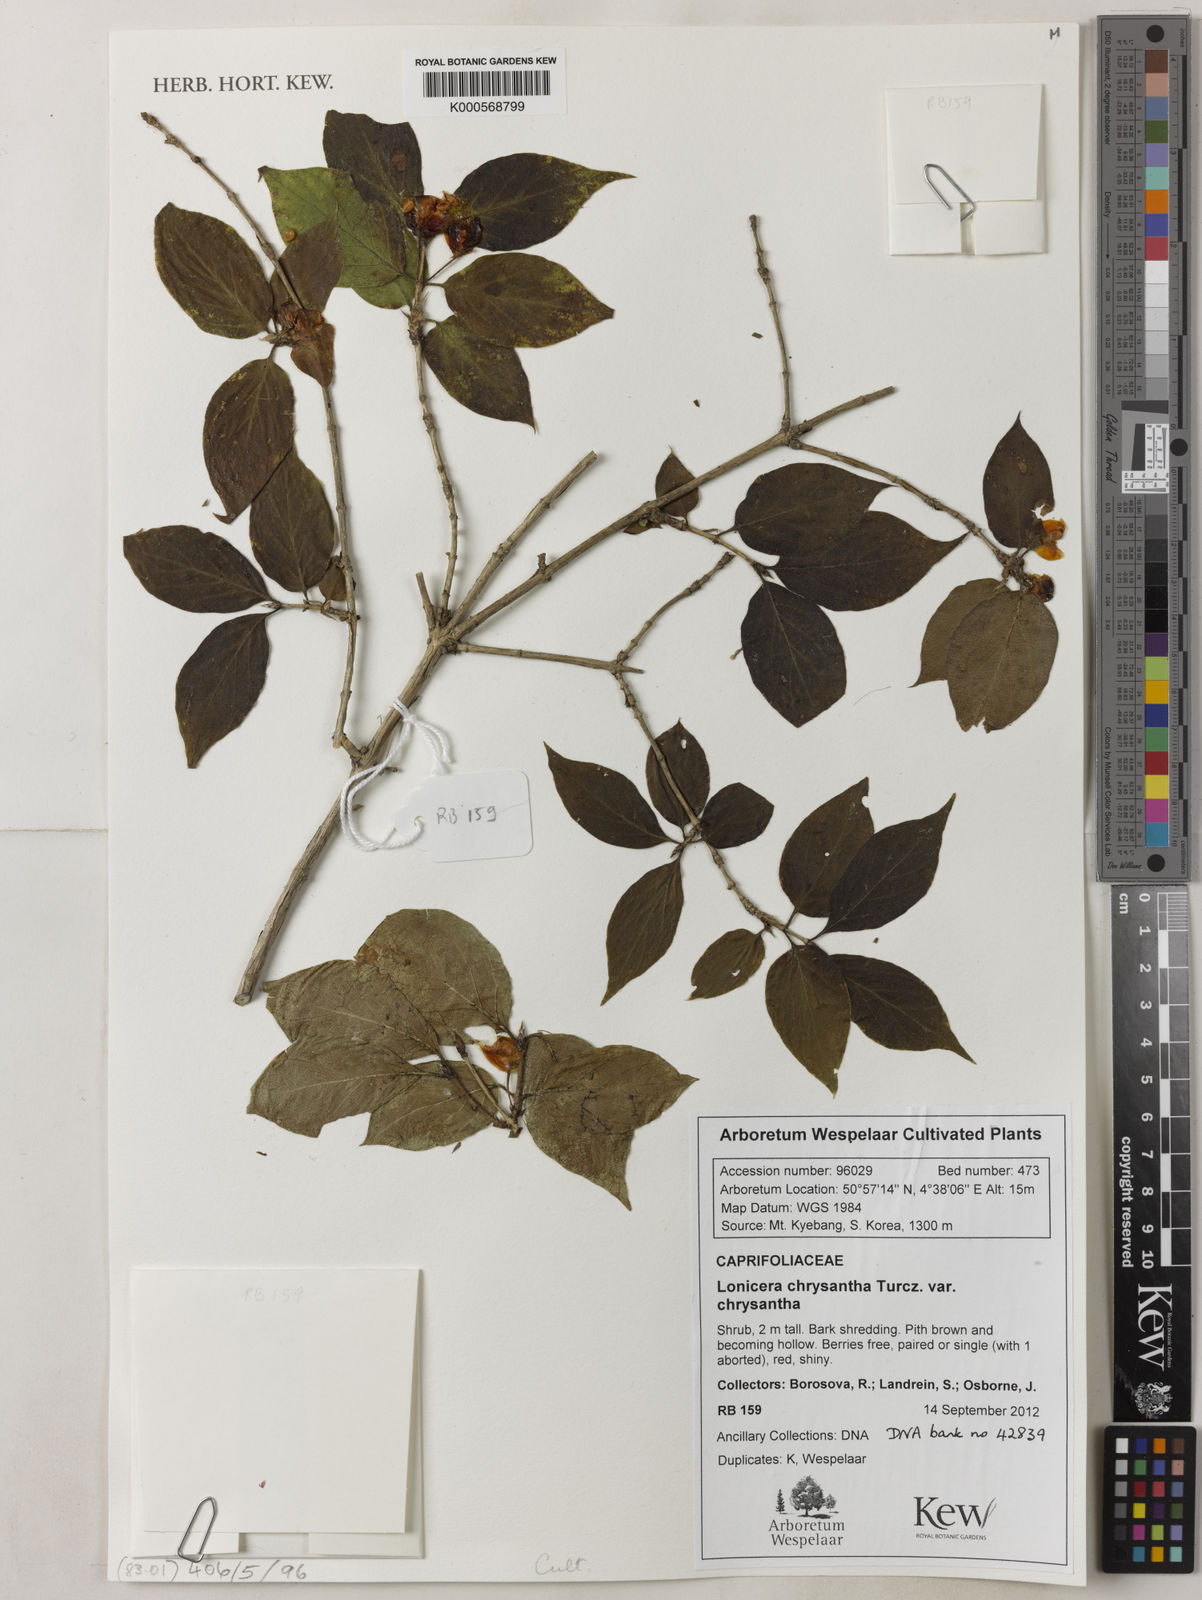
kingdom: Plantae
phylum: Tracheophyta
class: Magnoliopsida
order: Dipsacales
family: Caprifoliaceae
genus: Lonicera
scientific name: Lonicera
